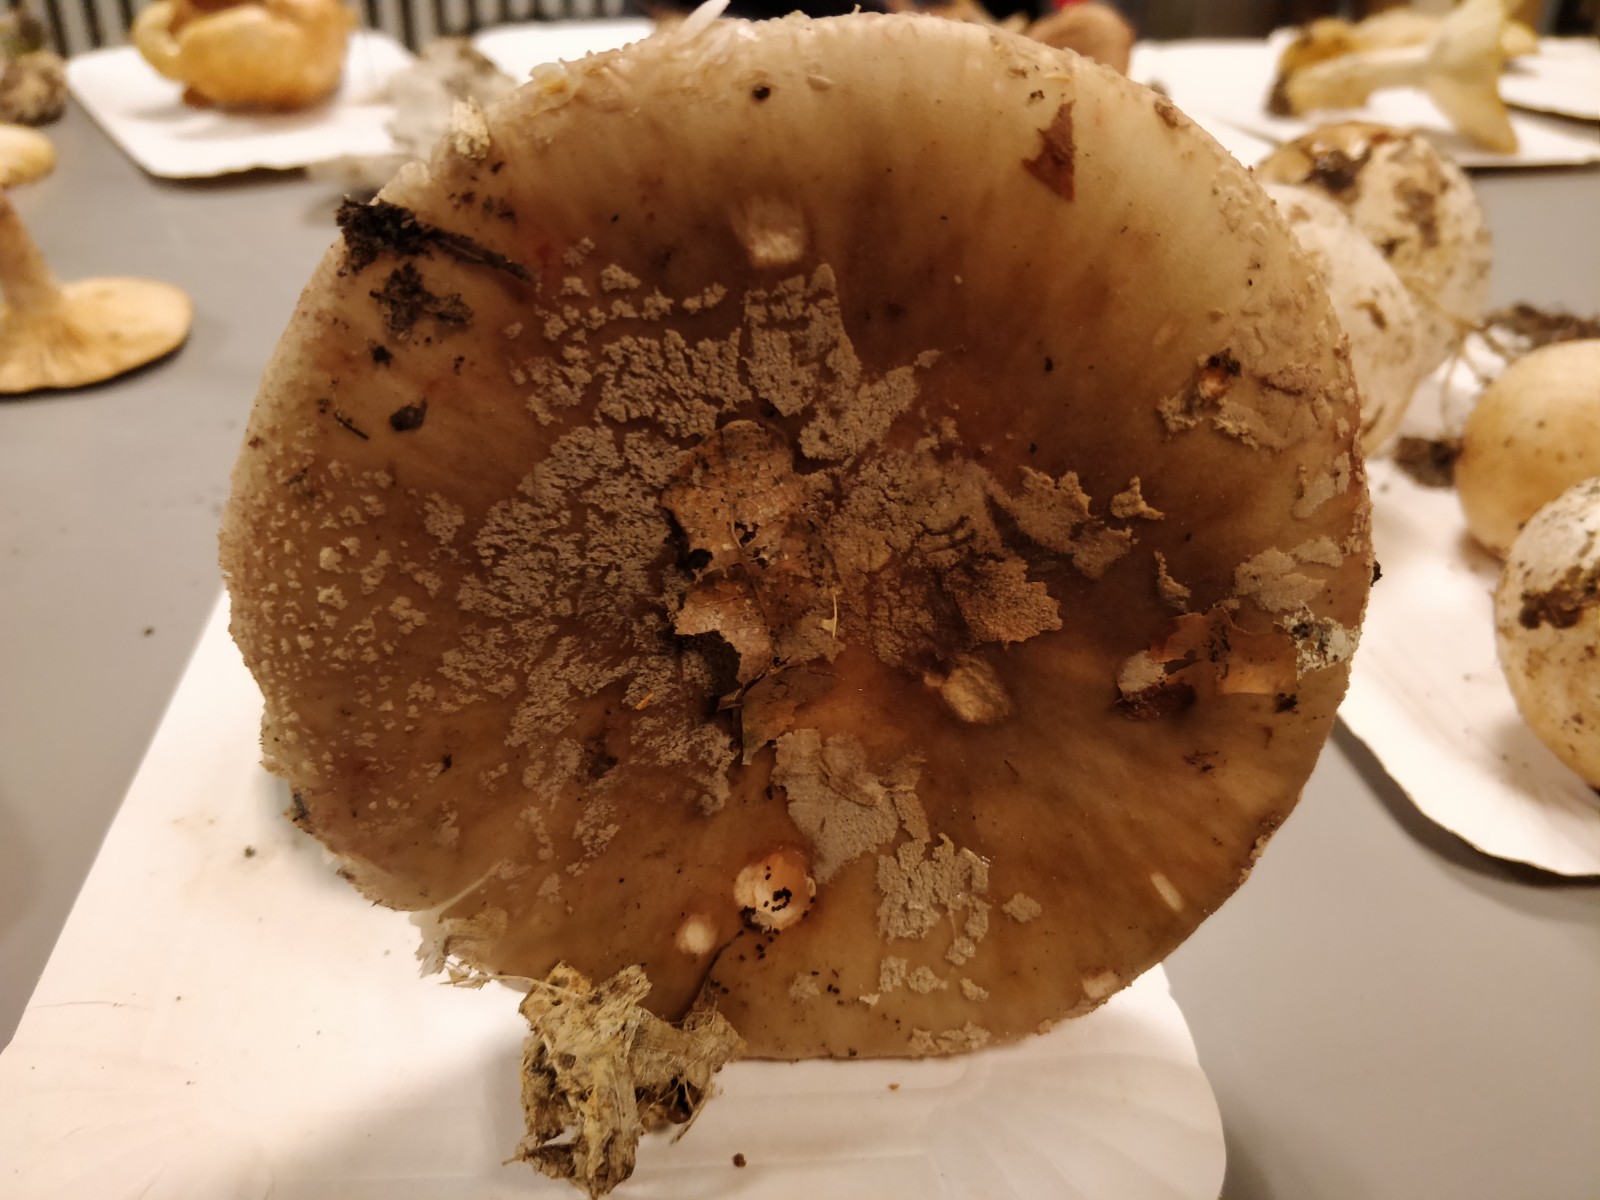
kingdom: Fungi
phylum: Basidiomycota
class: Agaricomycetes
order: Agaricales
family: Amanitaceae
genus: Amanita
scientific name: Amanita rubescens
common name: rødmende fluesvamp
